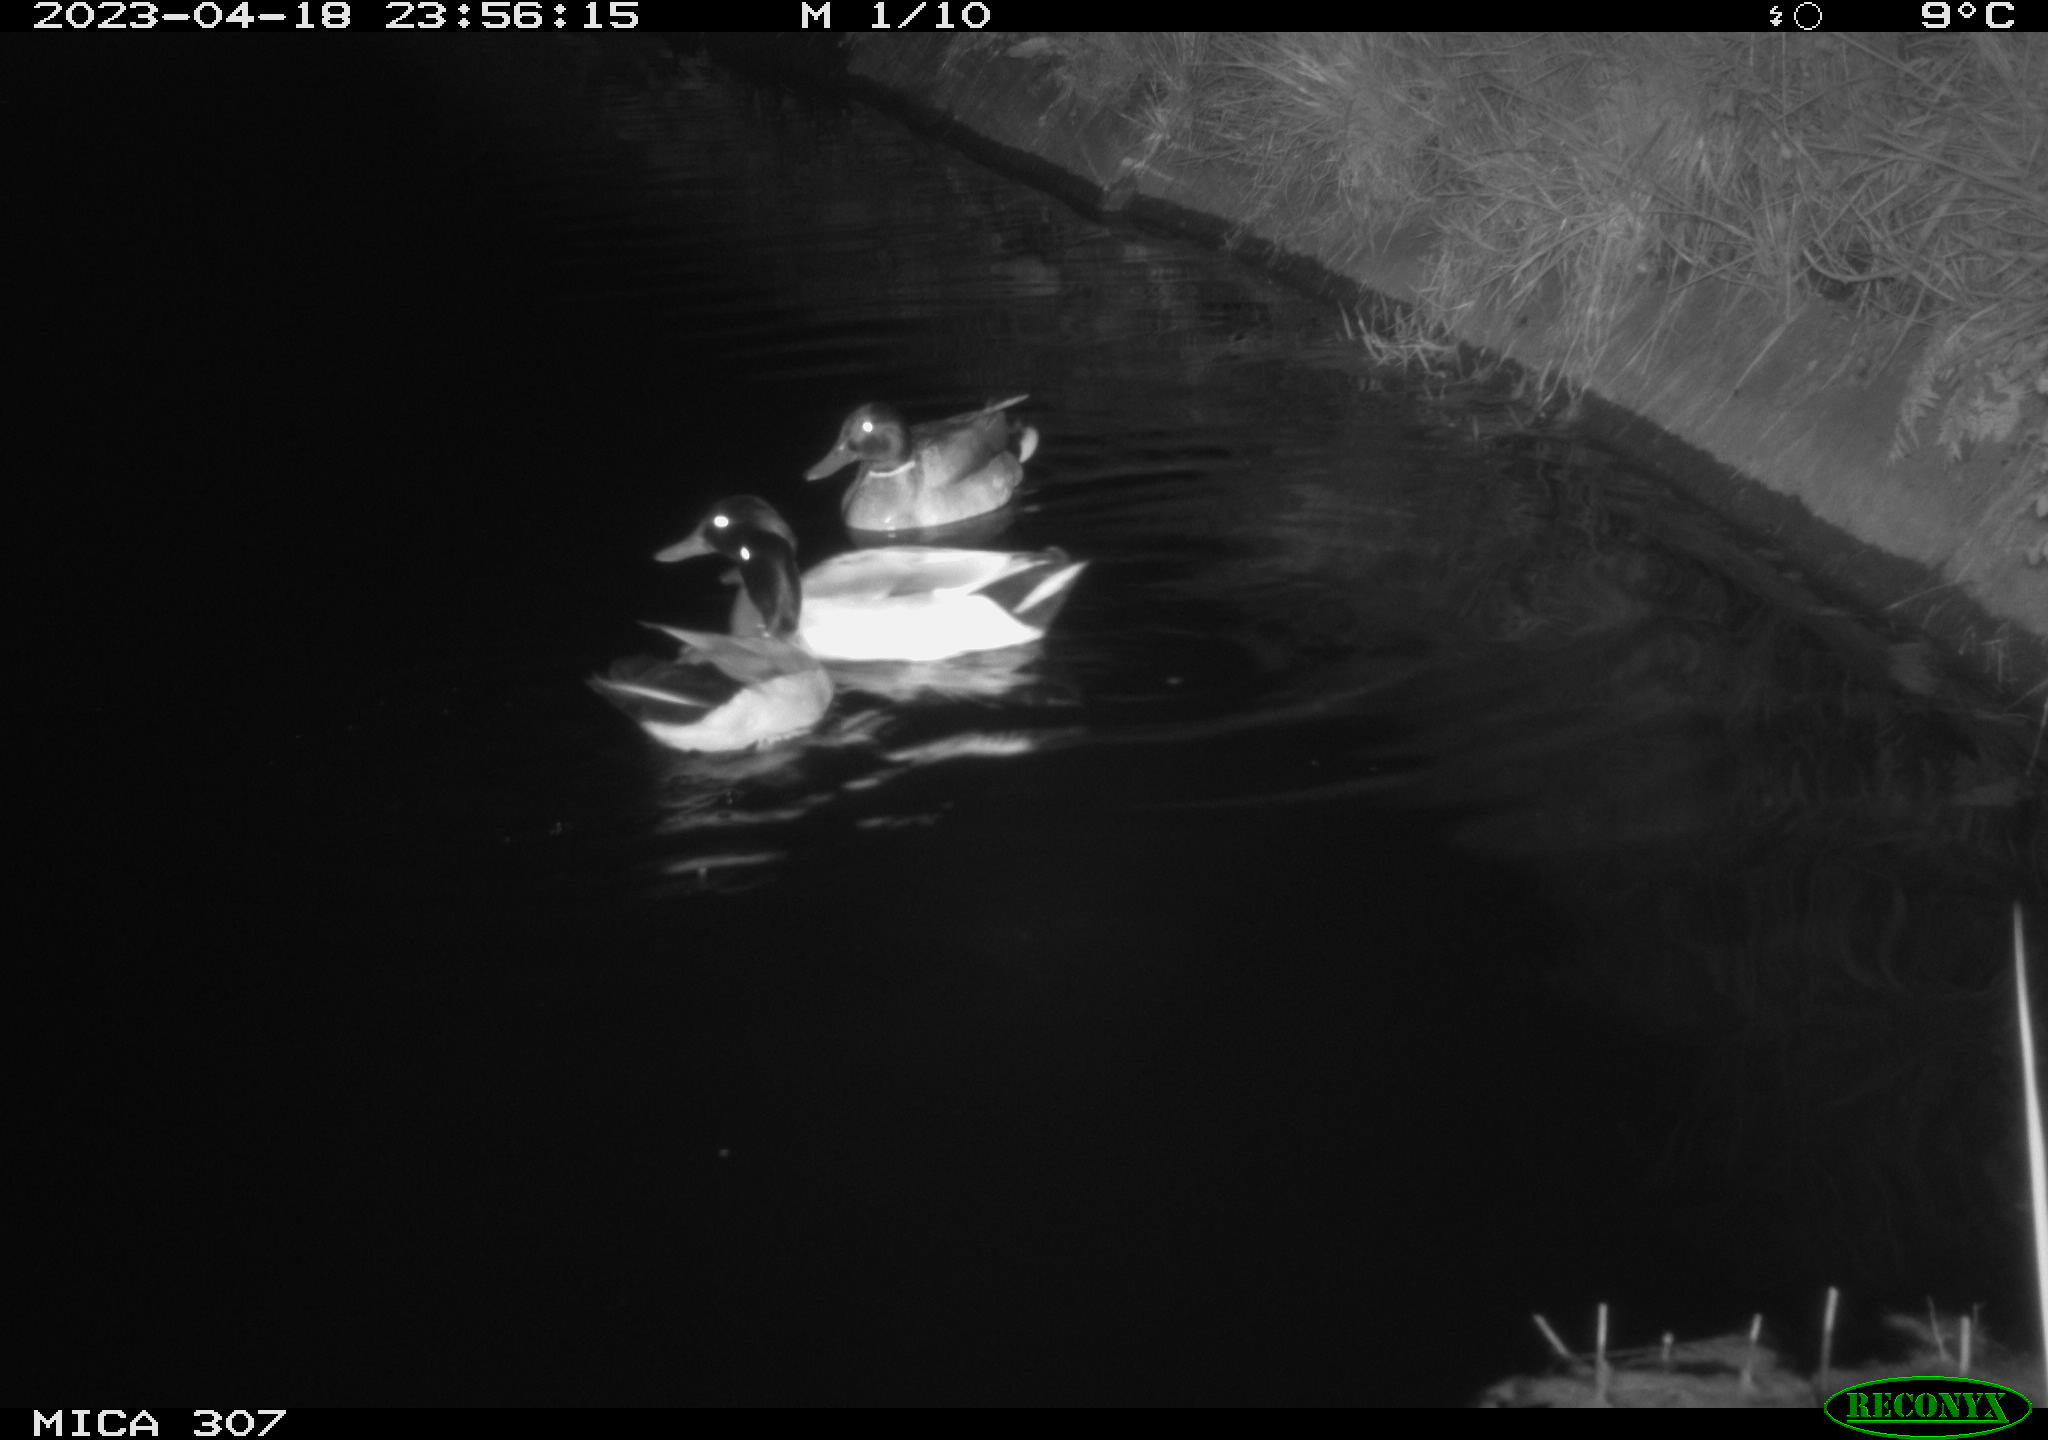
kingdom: Animalia
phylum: Chordata
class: Aves
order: Anseriformes
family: Anatidae
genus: Anas
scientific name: Anas
